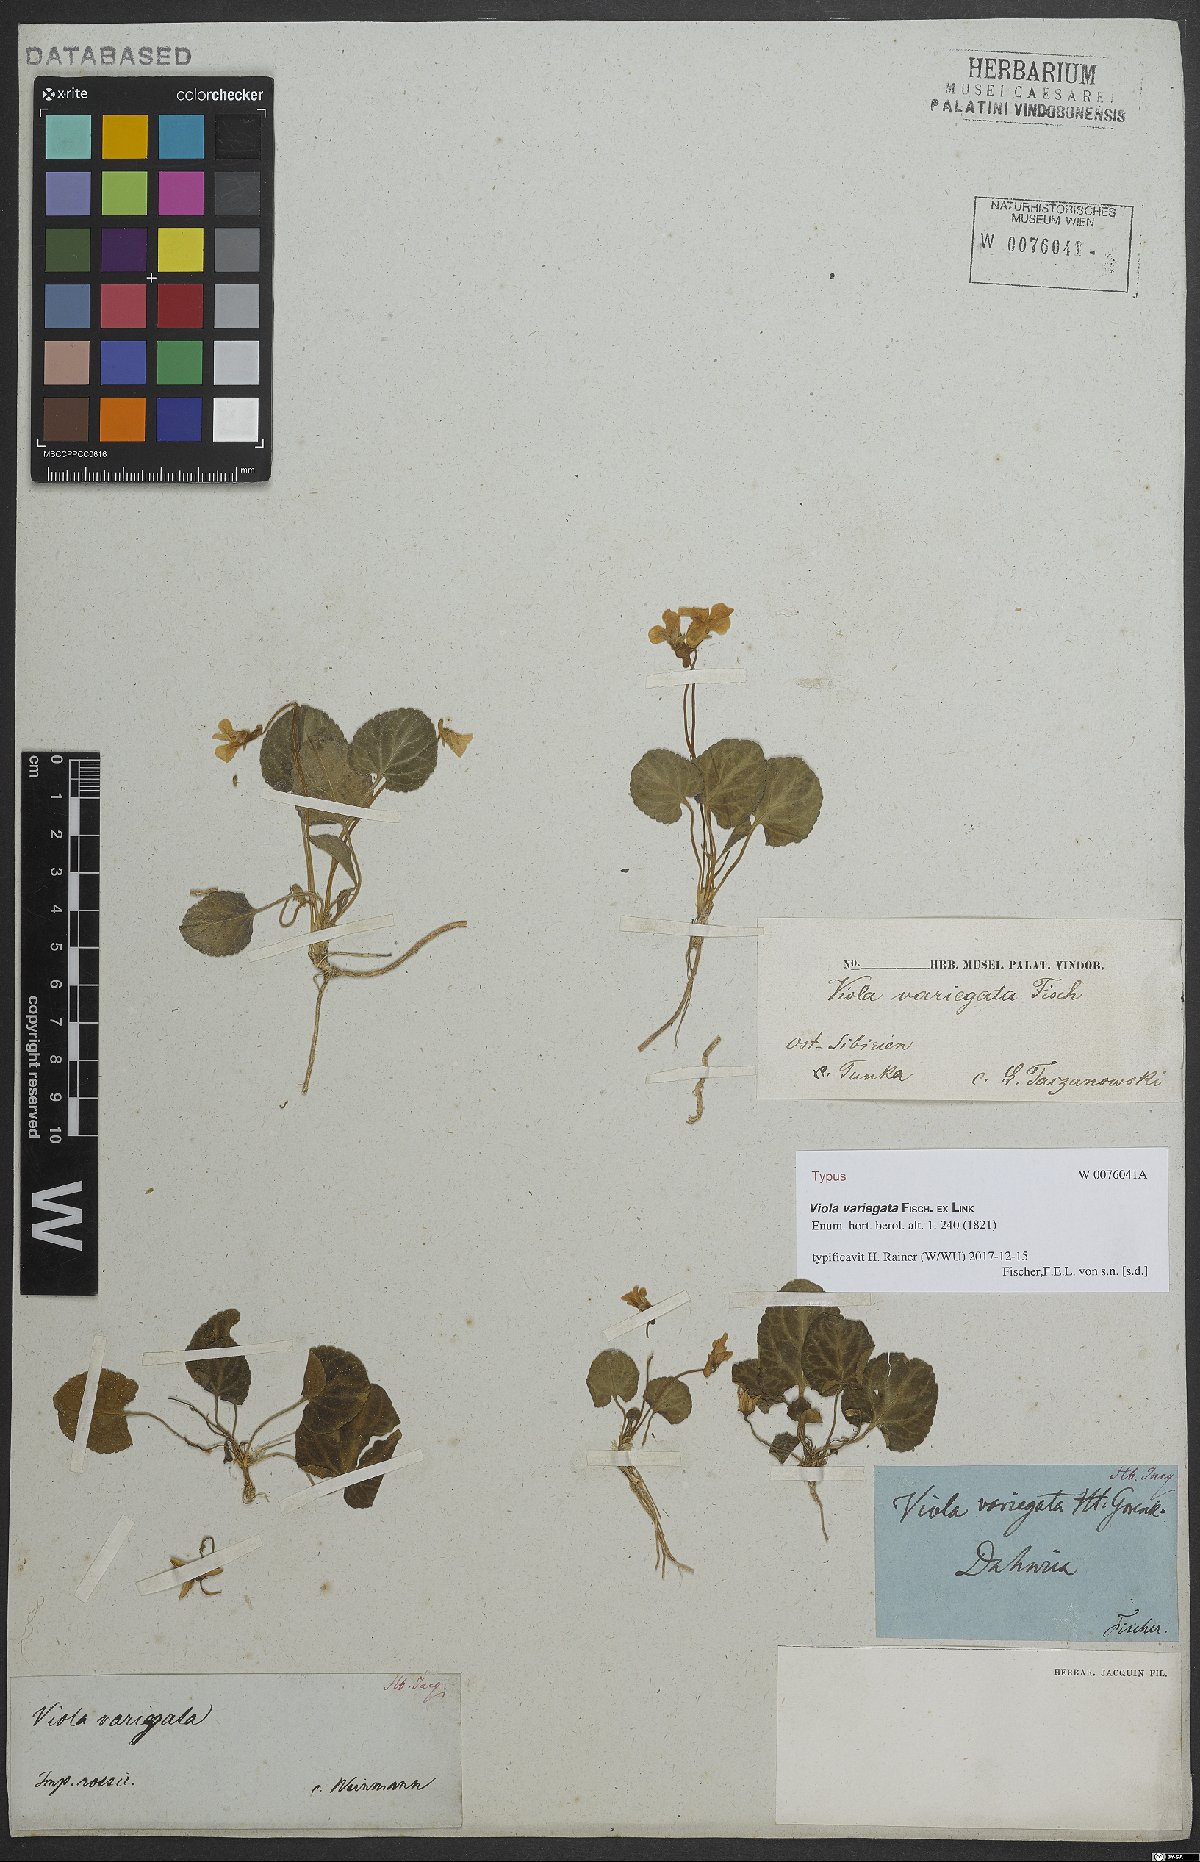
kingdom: Plantae
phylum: Tracheophyta
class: Magnoliopsida
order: Malpighiales
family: Violaceae
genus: Viola
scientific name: Viola variegata
